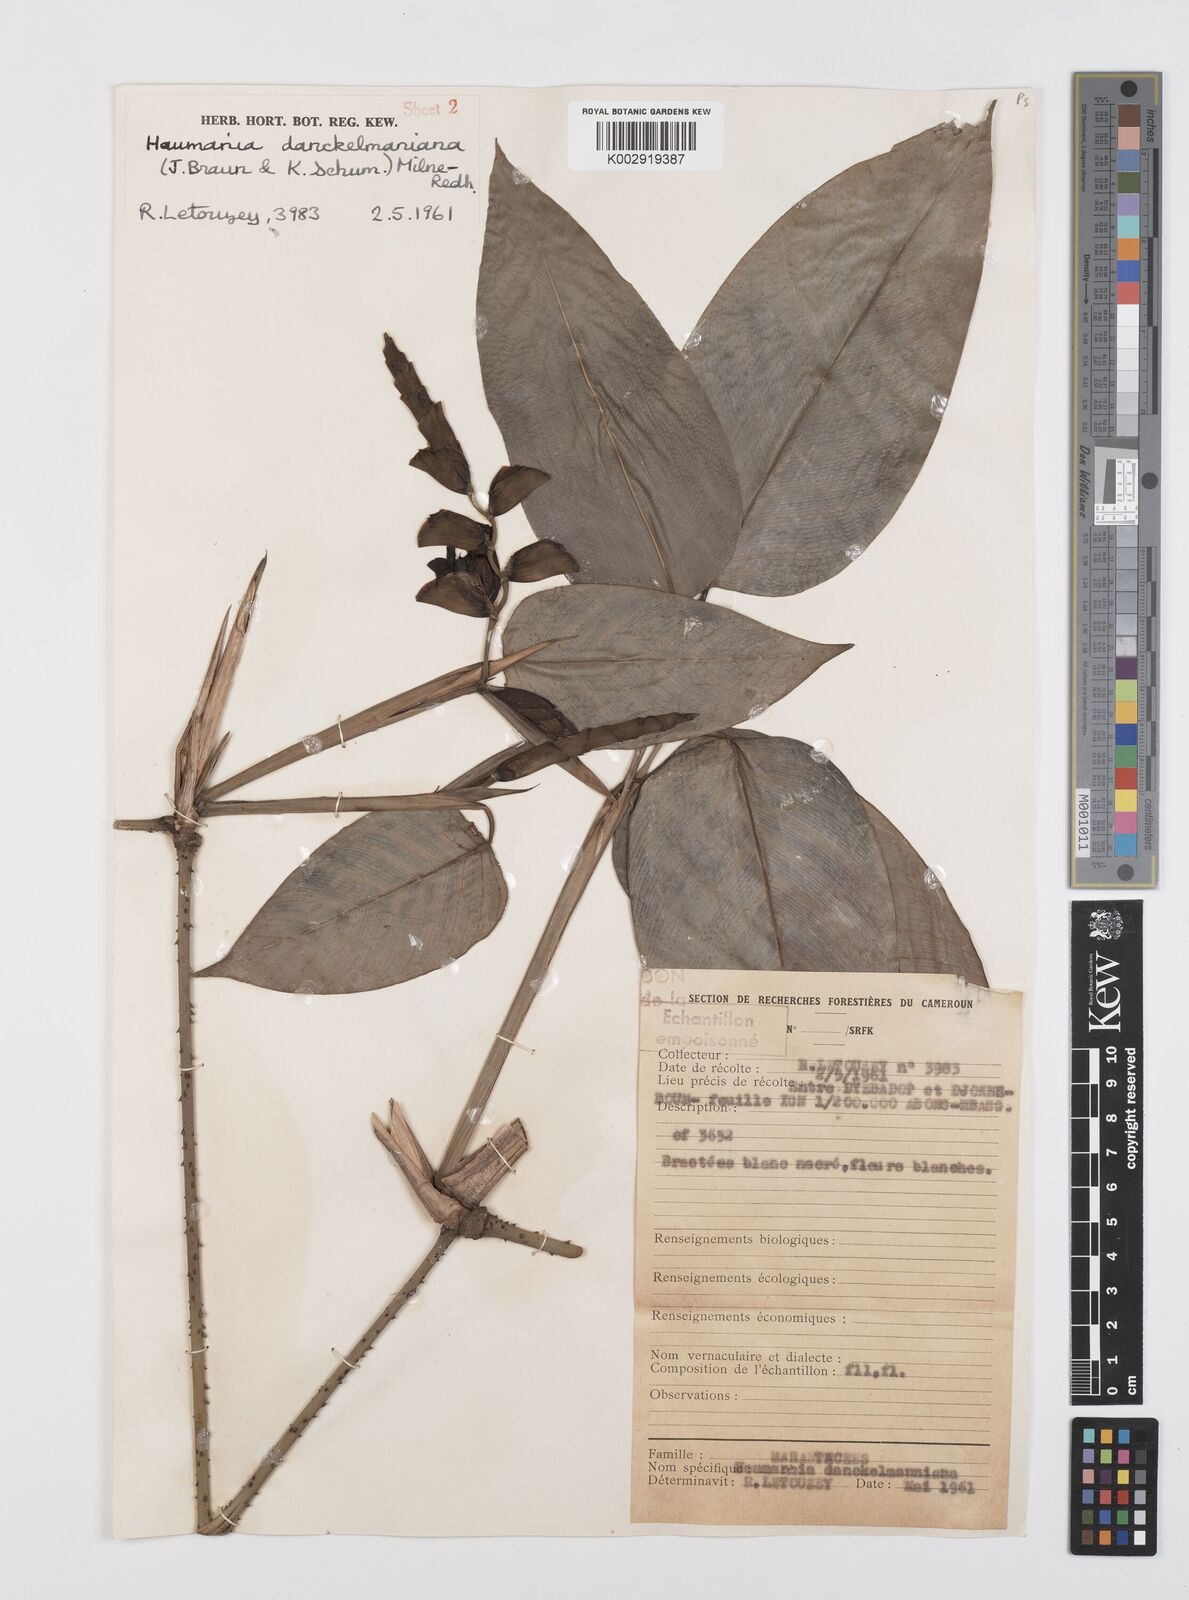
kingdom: Plantae
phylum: Tracheophyta
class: Liliopsida
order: Zingiberales
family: Marantaceae
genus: Haumania
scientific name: Haumania danckelmaniana
